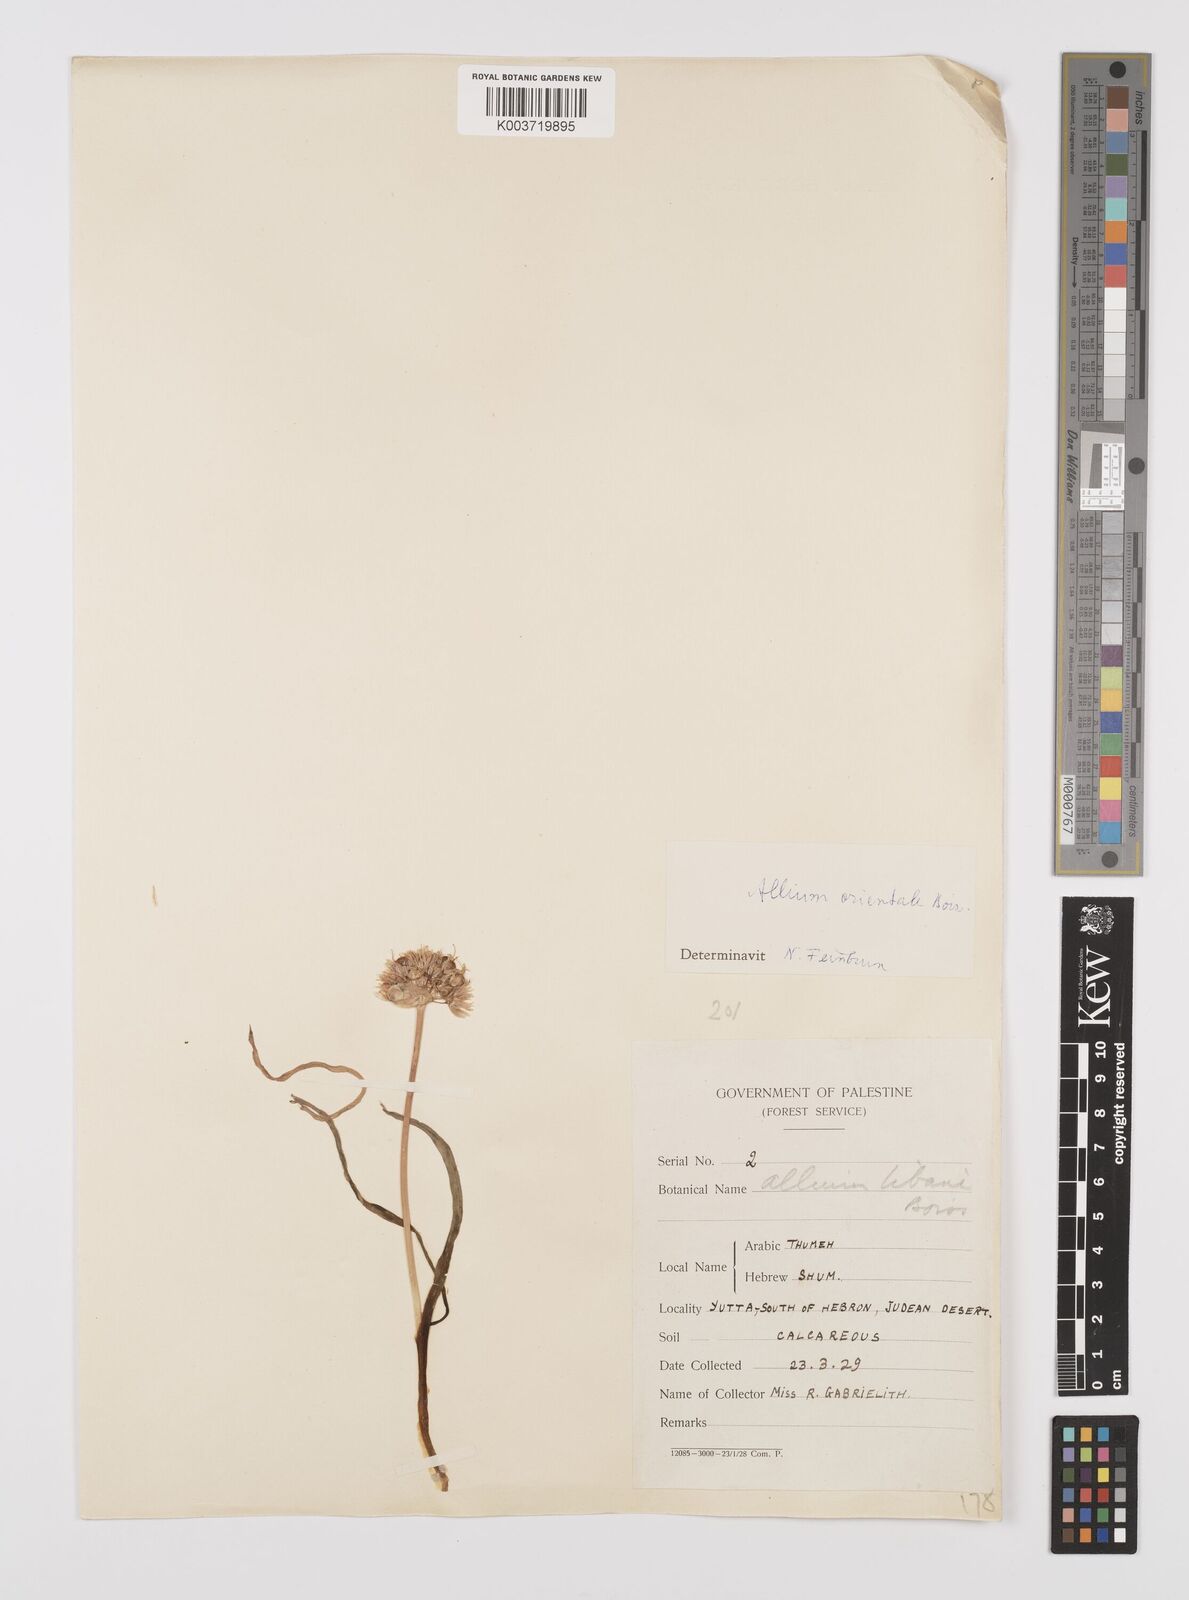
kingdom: Plantae
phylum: Tracheophyta
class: Liliopsida
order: Asparagales
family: Amaryllidaceae
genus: Allium
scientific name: Allium orientale
